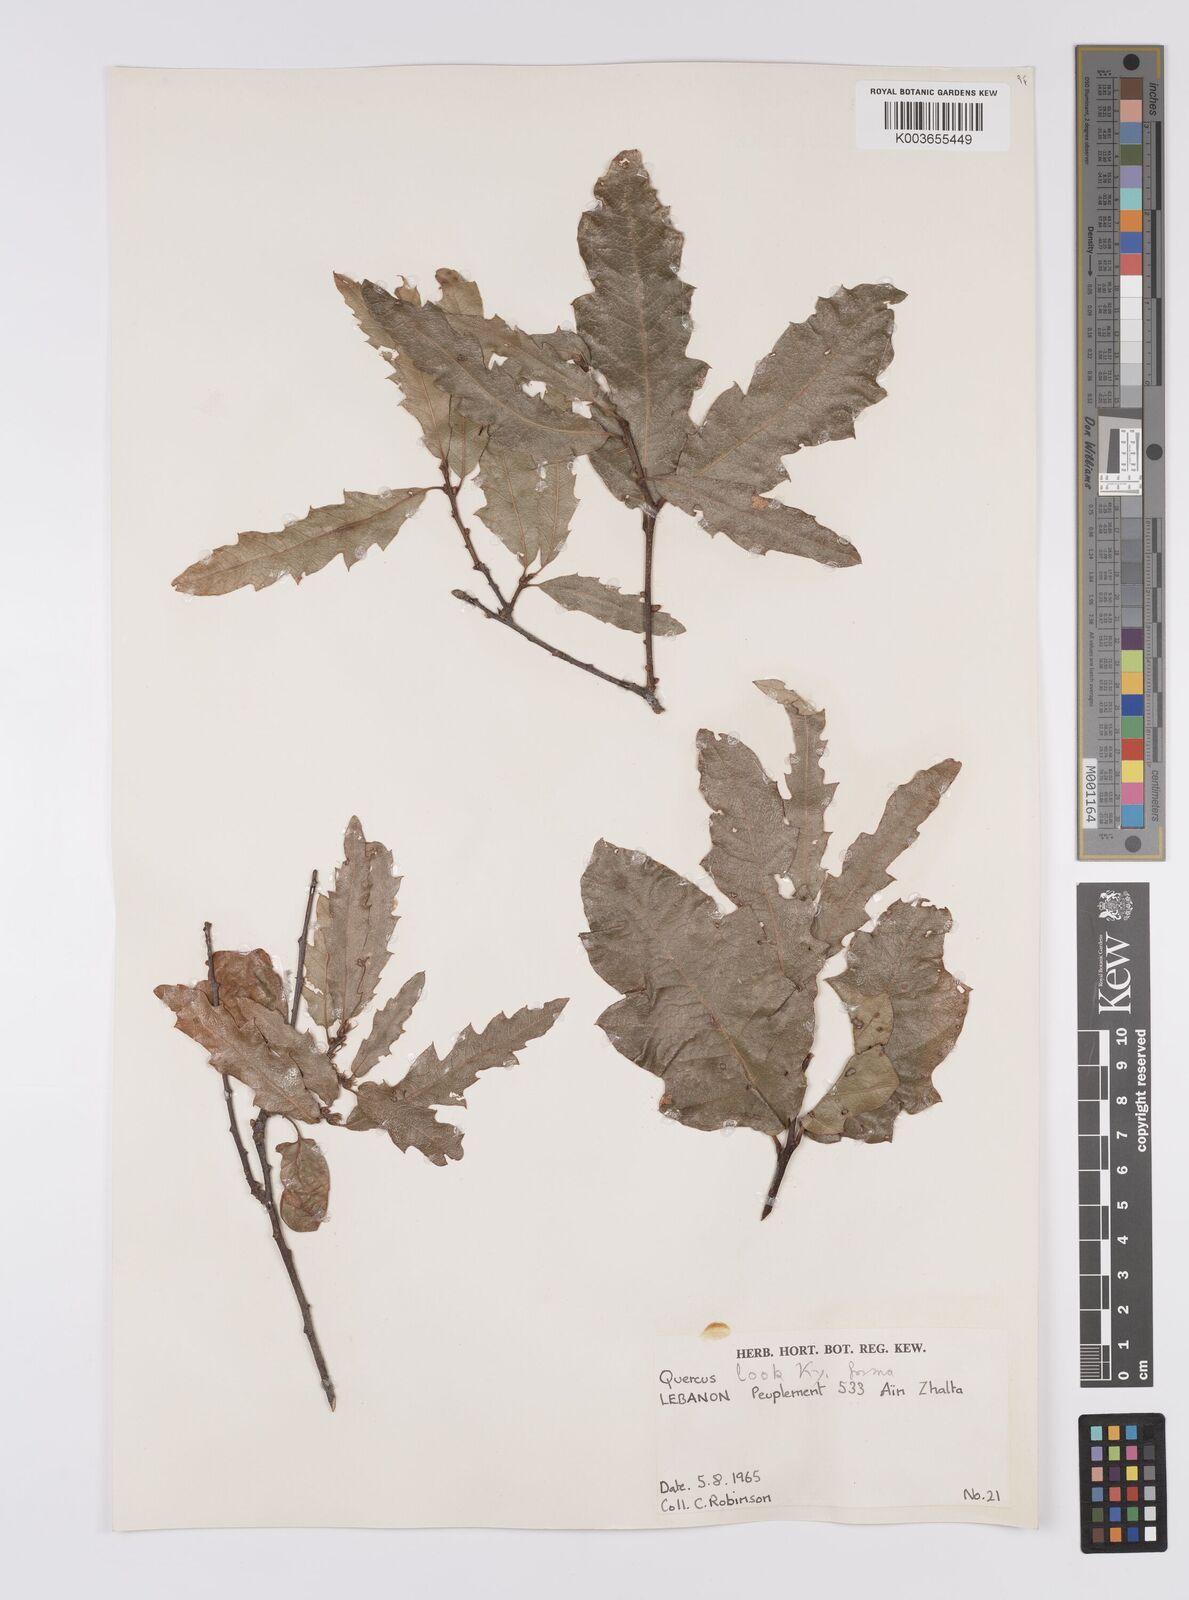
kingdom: Plantae
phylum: Tracheophyta
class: Magnoliopsida
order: Fagales
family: Fagaceae
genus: Quercus
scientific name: Quercus look
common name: Look oak
